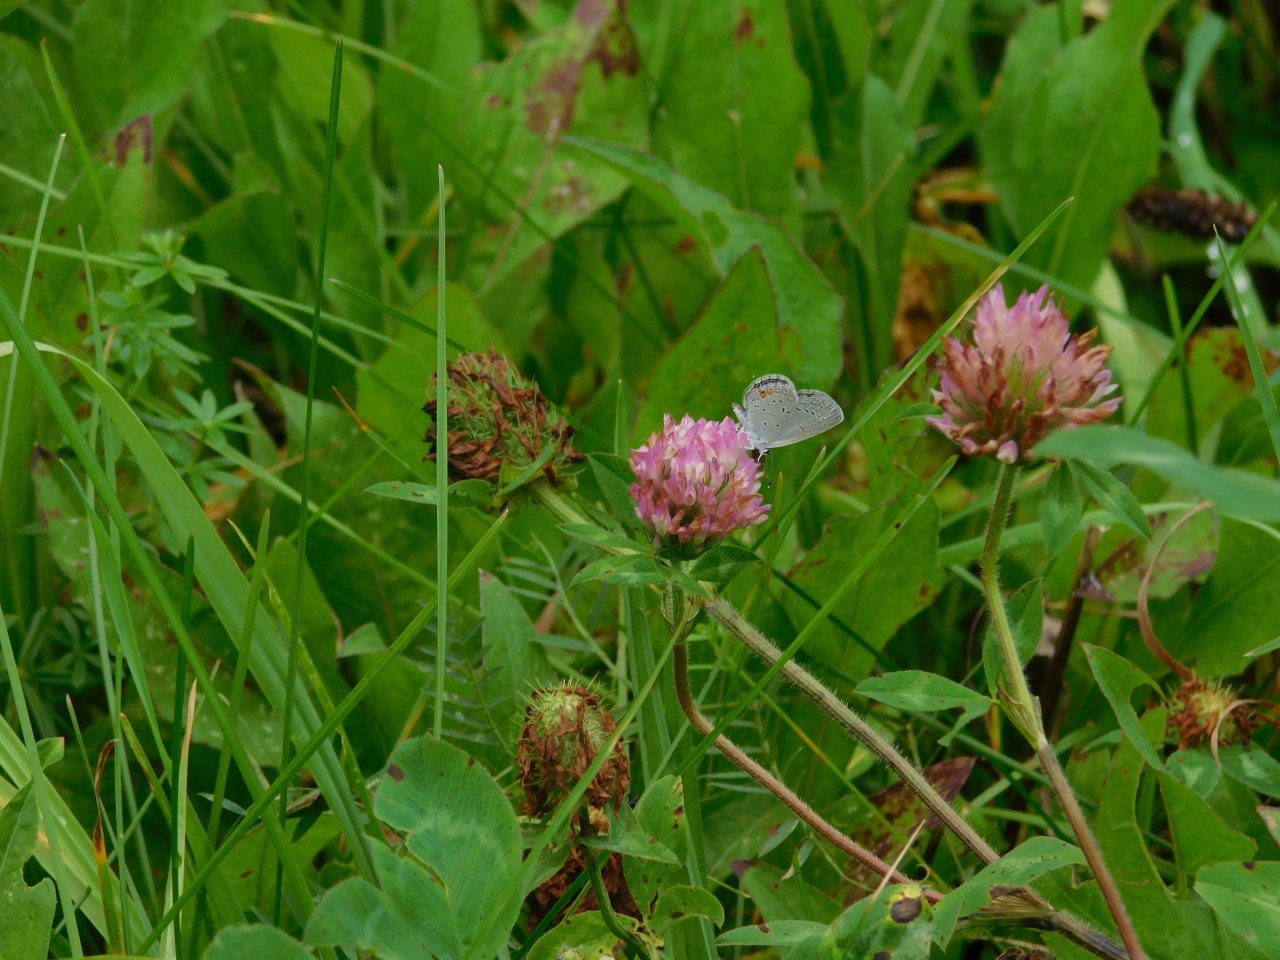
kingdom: Animalia
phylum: Arthropoda
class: Insecta
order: Lepidoptera
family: Lycaenidae
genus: Elkalyce
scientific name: Elkalyce comyntas
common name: Eastern Tailed-Blue
